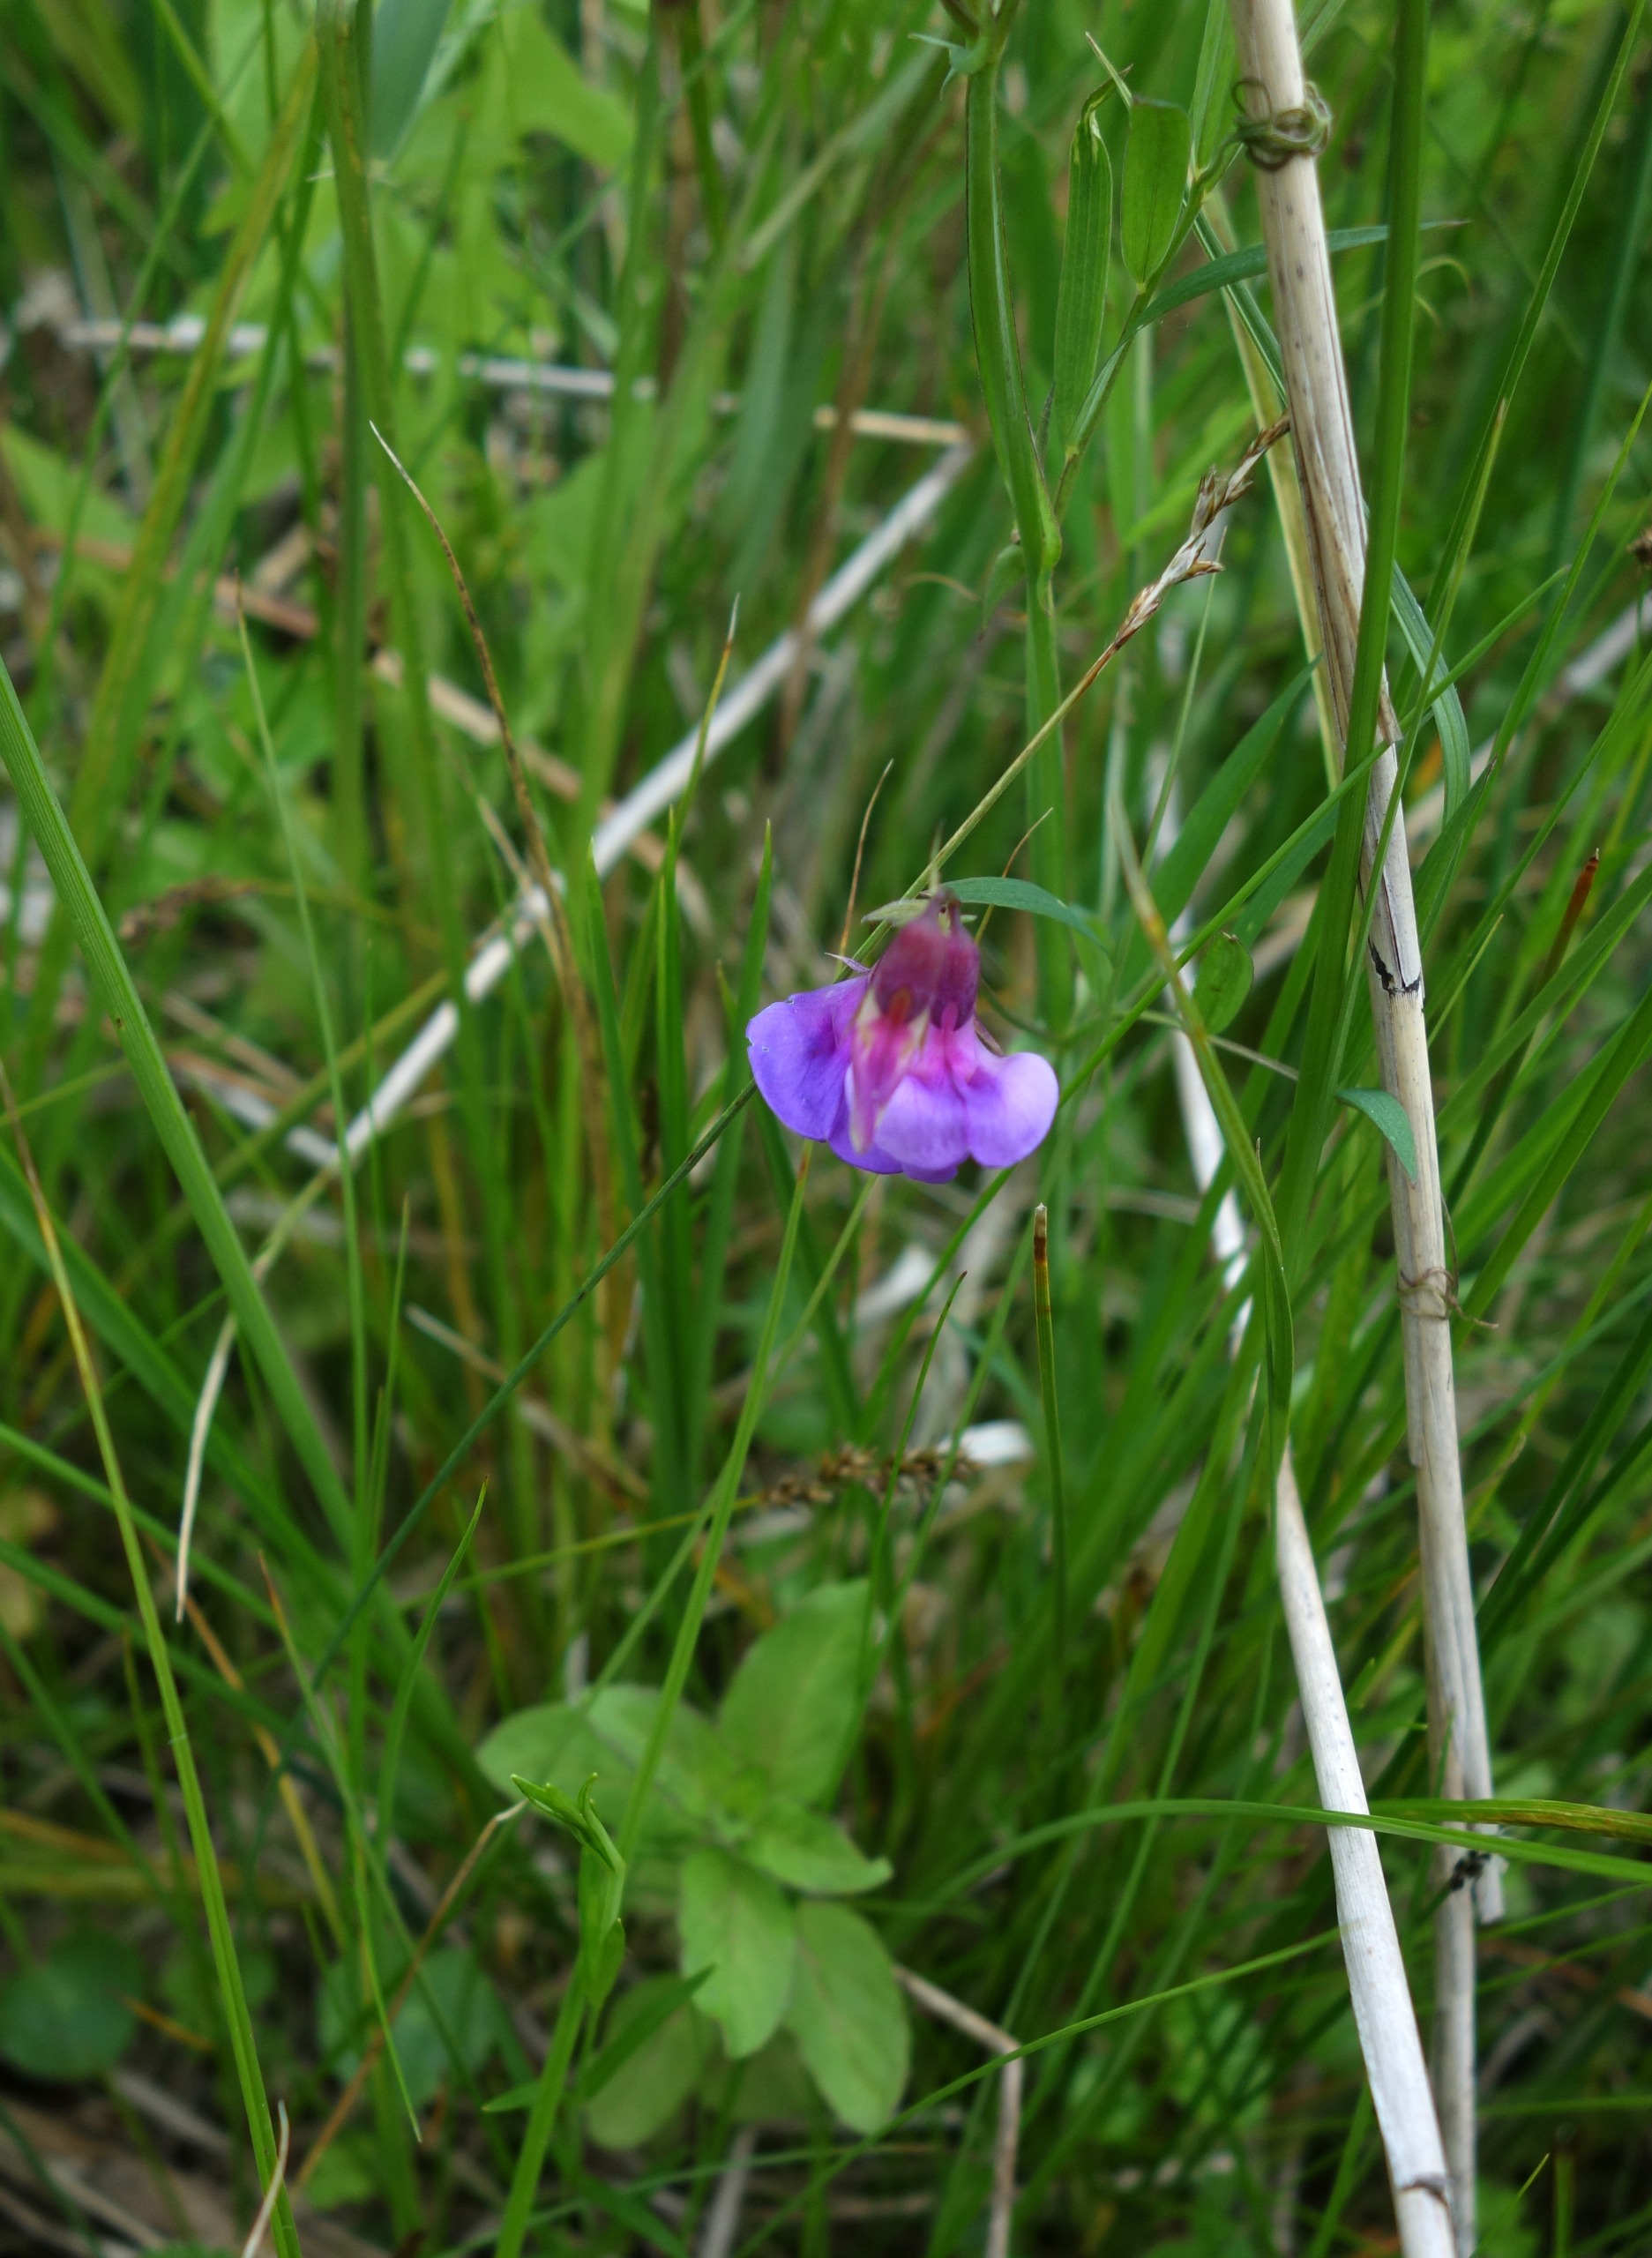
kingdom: Plantae
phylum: Tracheophyta
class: Magnoliopsida
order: Fabales
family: Fabaceae
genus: Lathyrus
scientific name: Lathyrus palustris
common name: Kær-fladbælg
